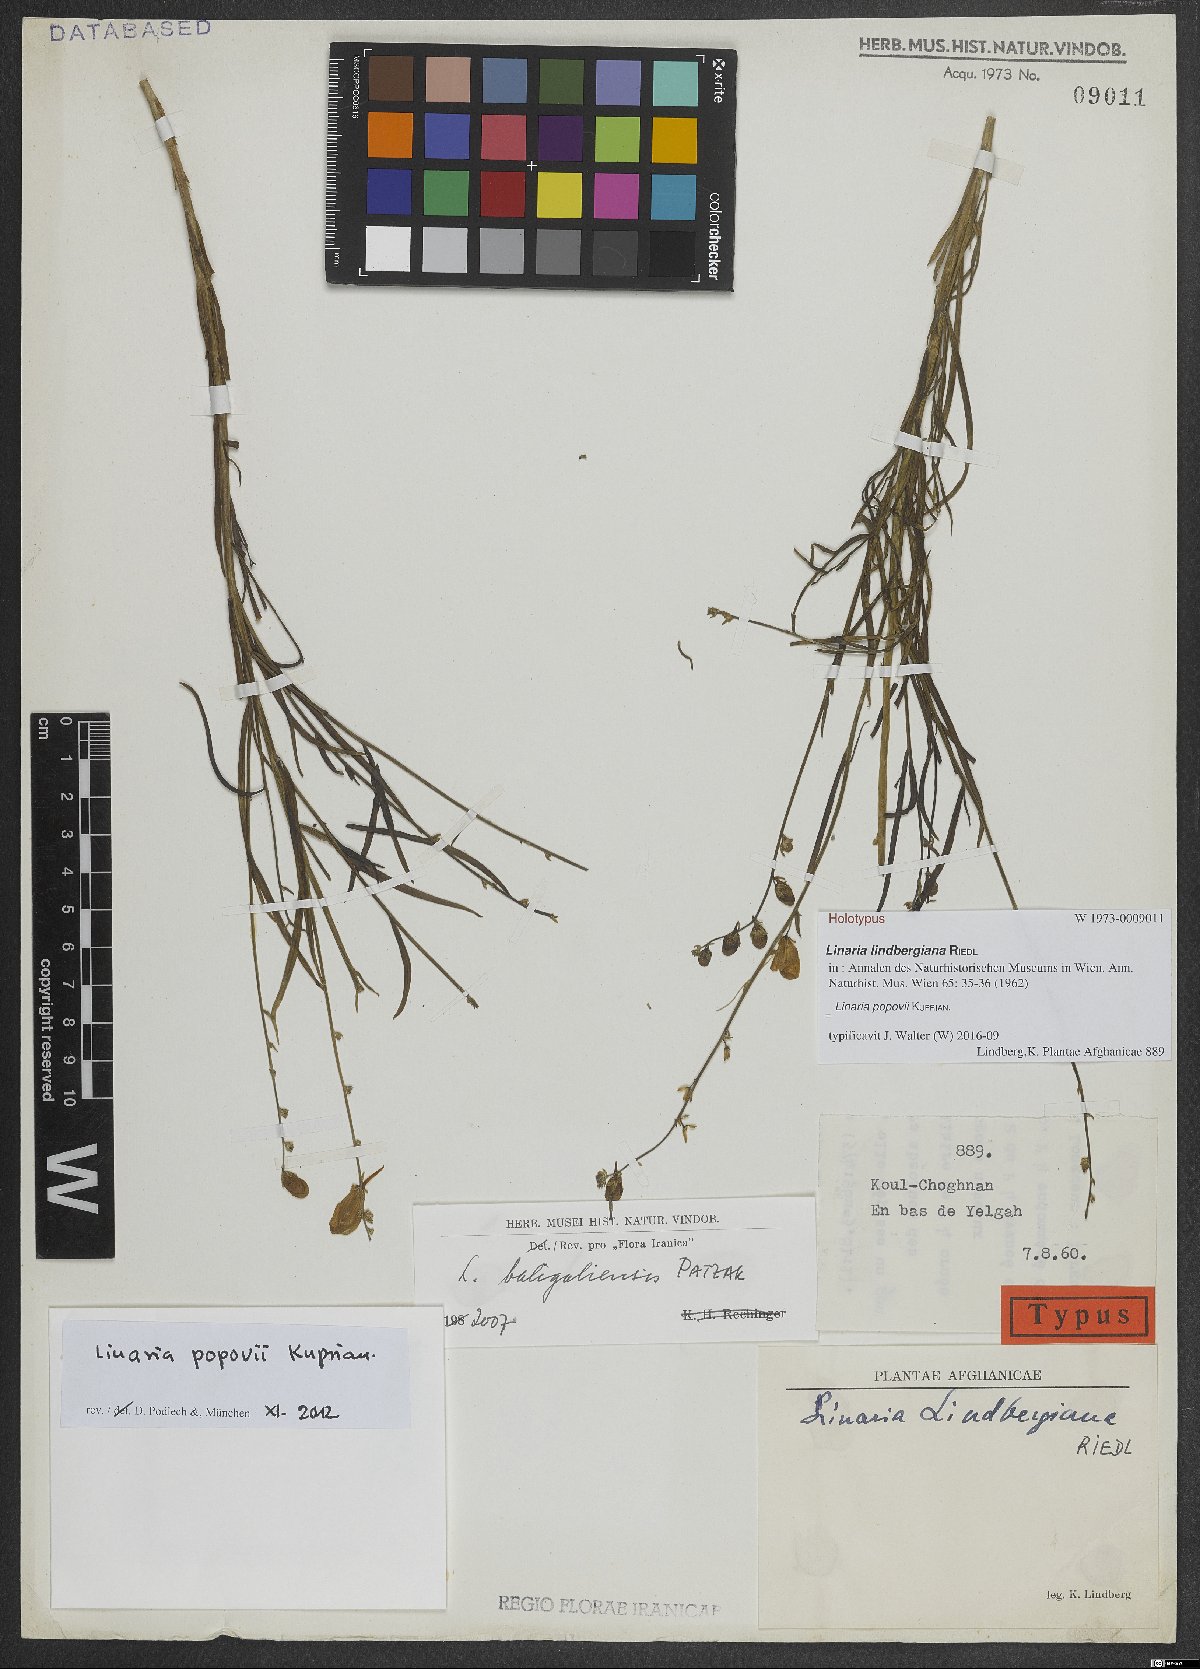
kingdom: Plantae
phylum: Tracheophyta
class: Magnoliopsida
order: Lamiales
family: Plantaginaceae
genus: Linaria
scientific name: Linaria popovii
